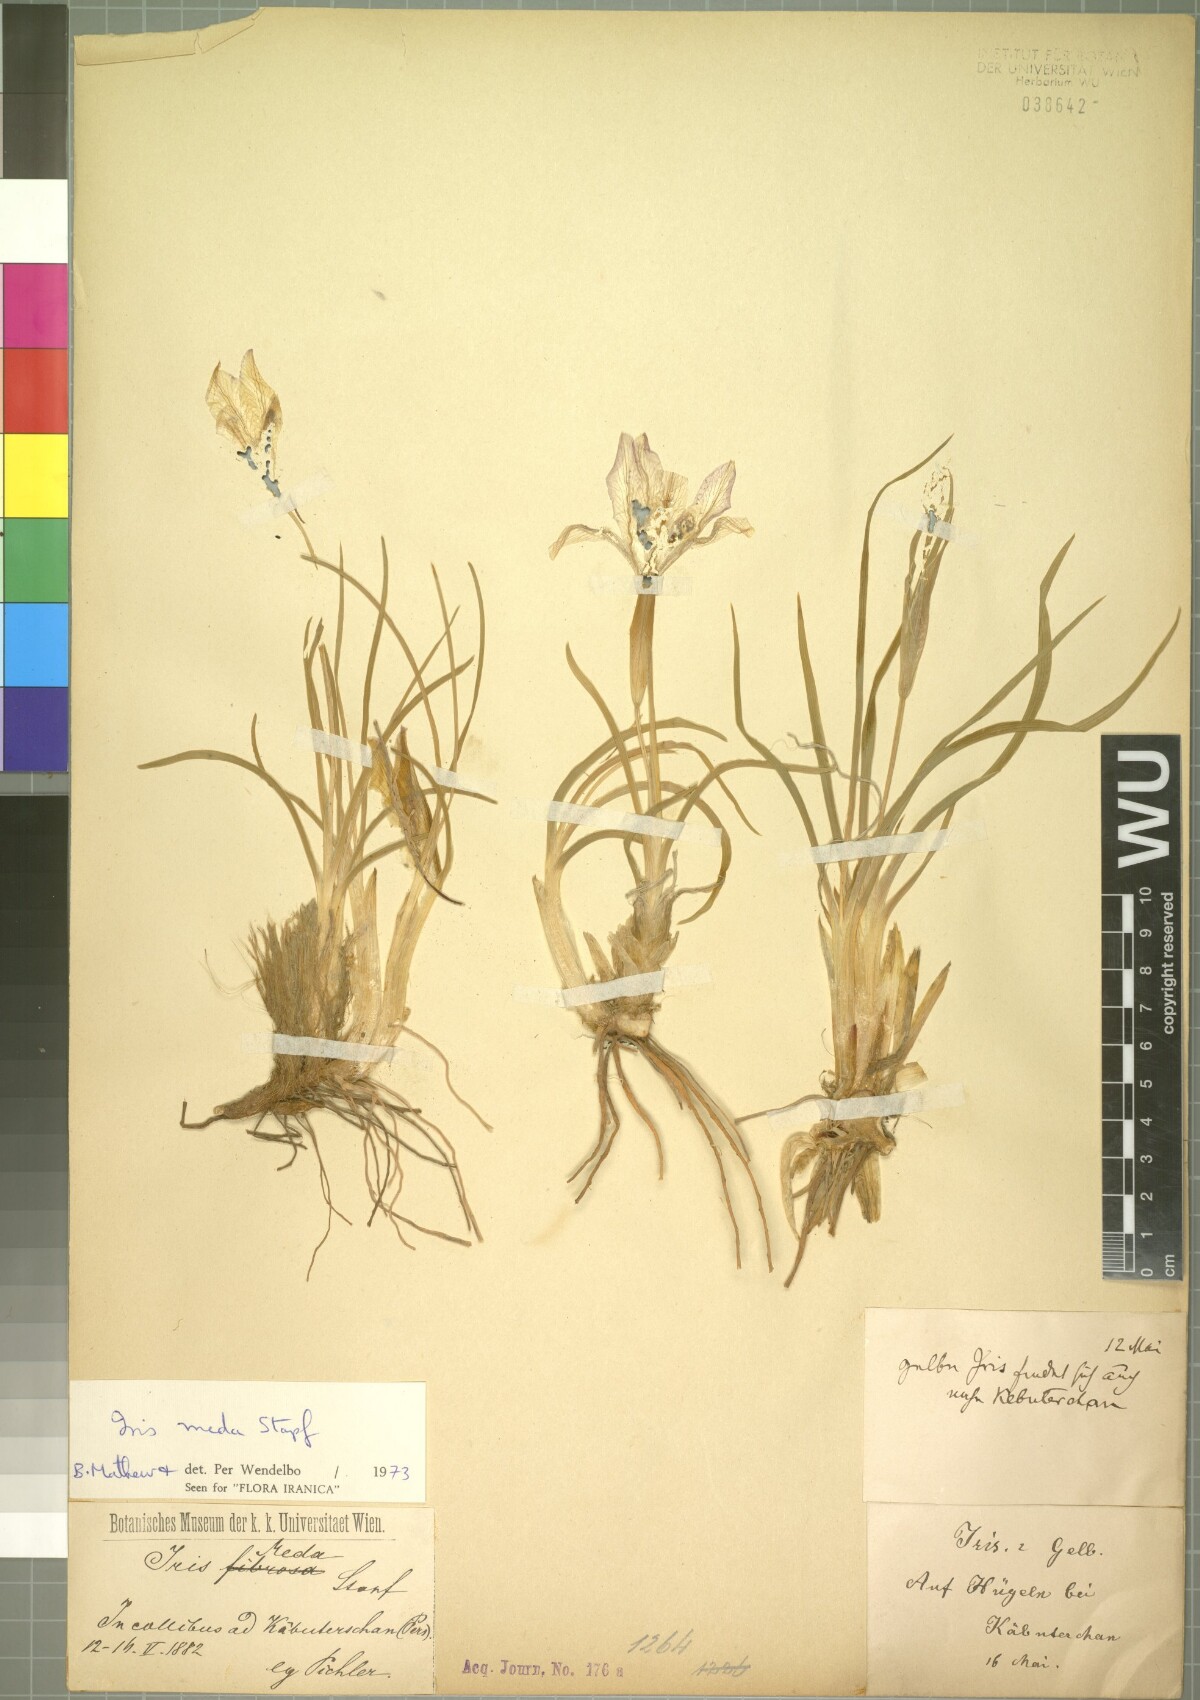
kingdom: Plantae
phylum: Tracheophyta
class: Liliopsida
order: Asparagales
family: Iridaceae
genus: Iris
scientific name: Iris meda
